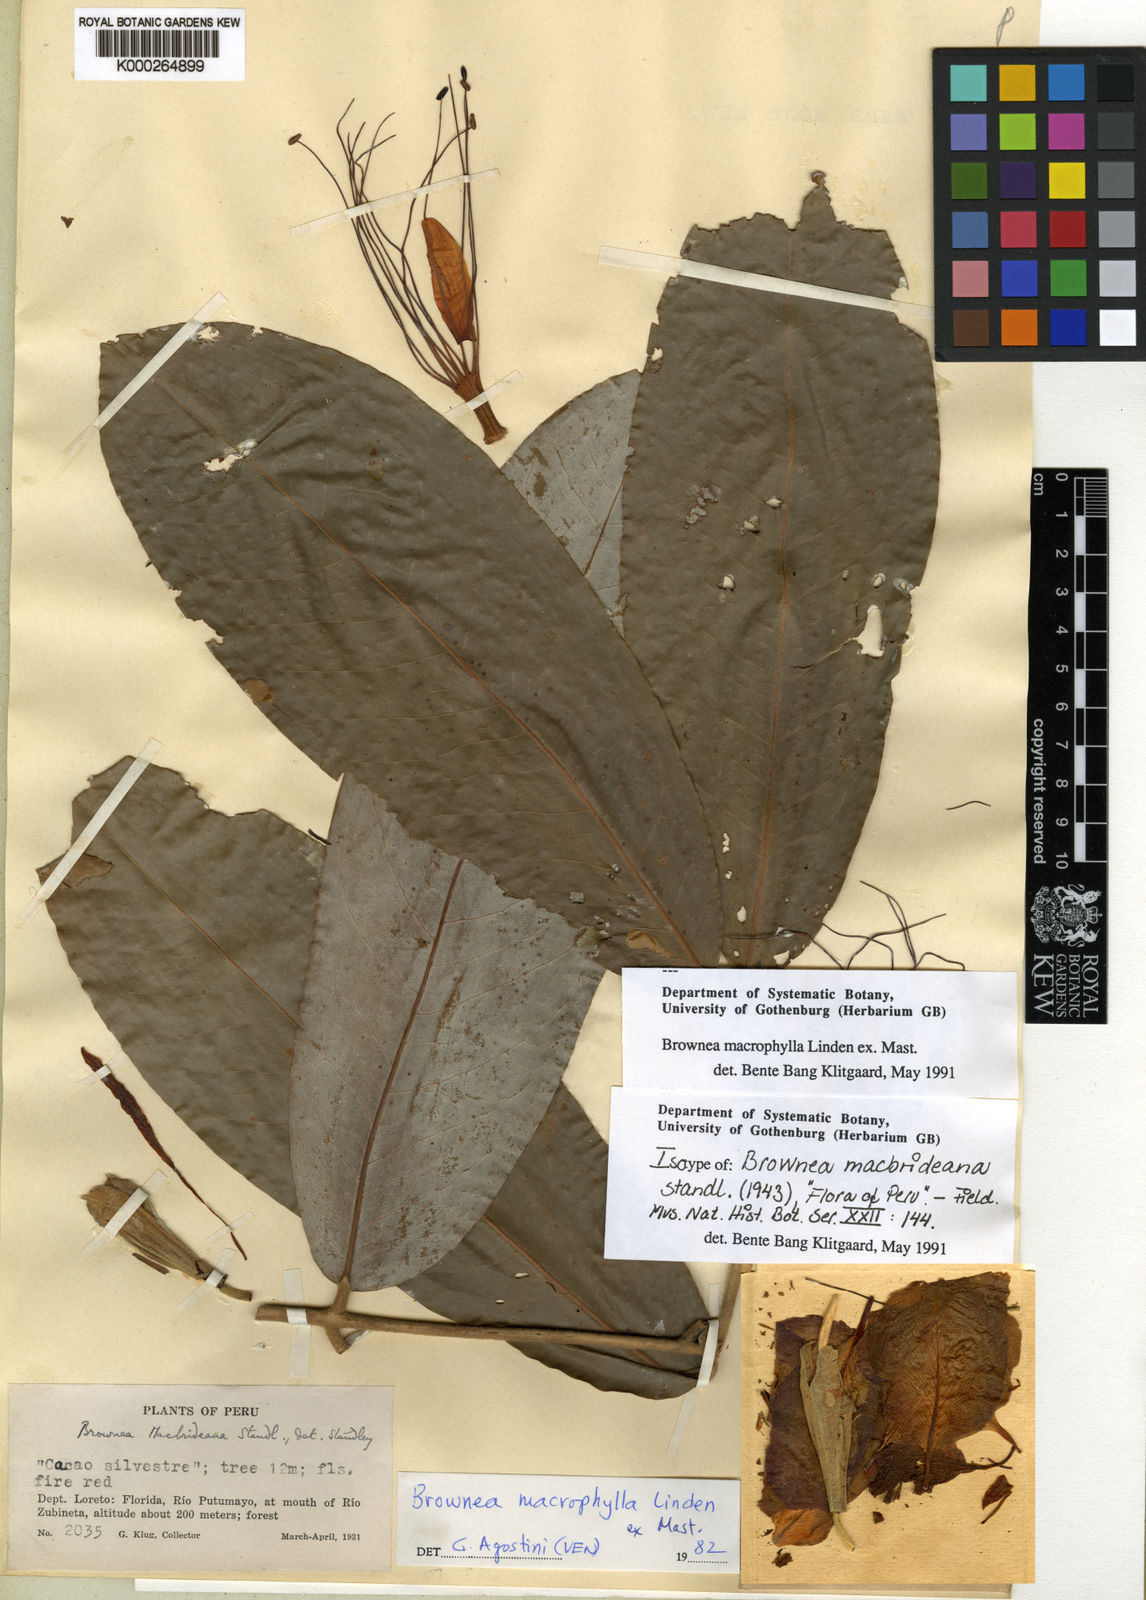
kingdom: Plantae
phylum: Tracheophyta
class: Magnoliopsida
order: Fabales
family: Fabaceae
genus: Brownea
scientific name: Brownea macrophylla
